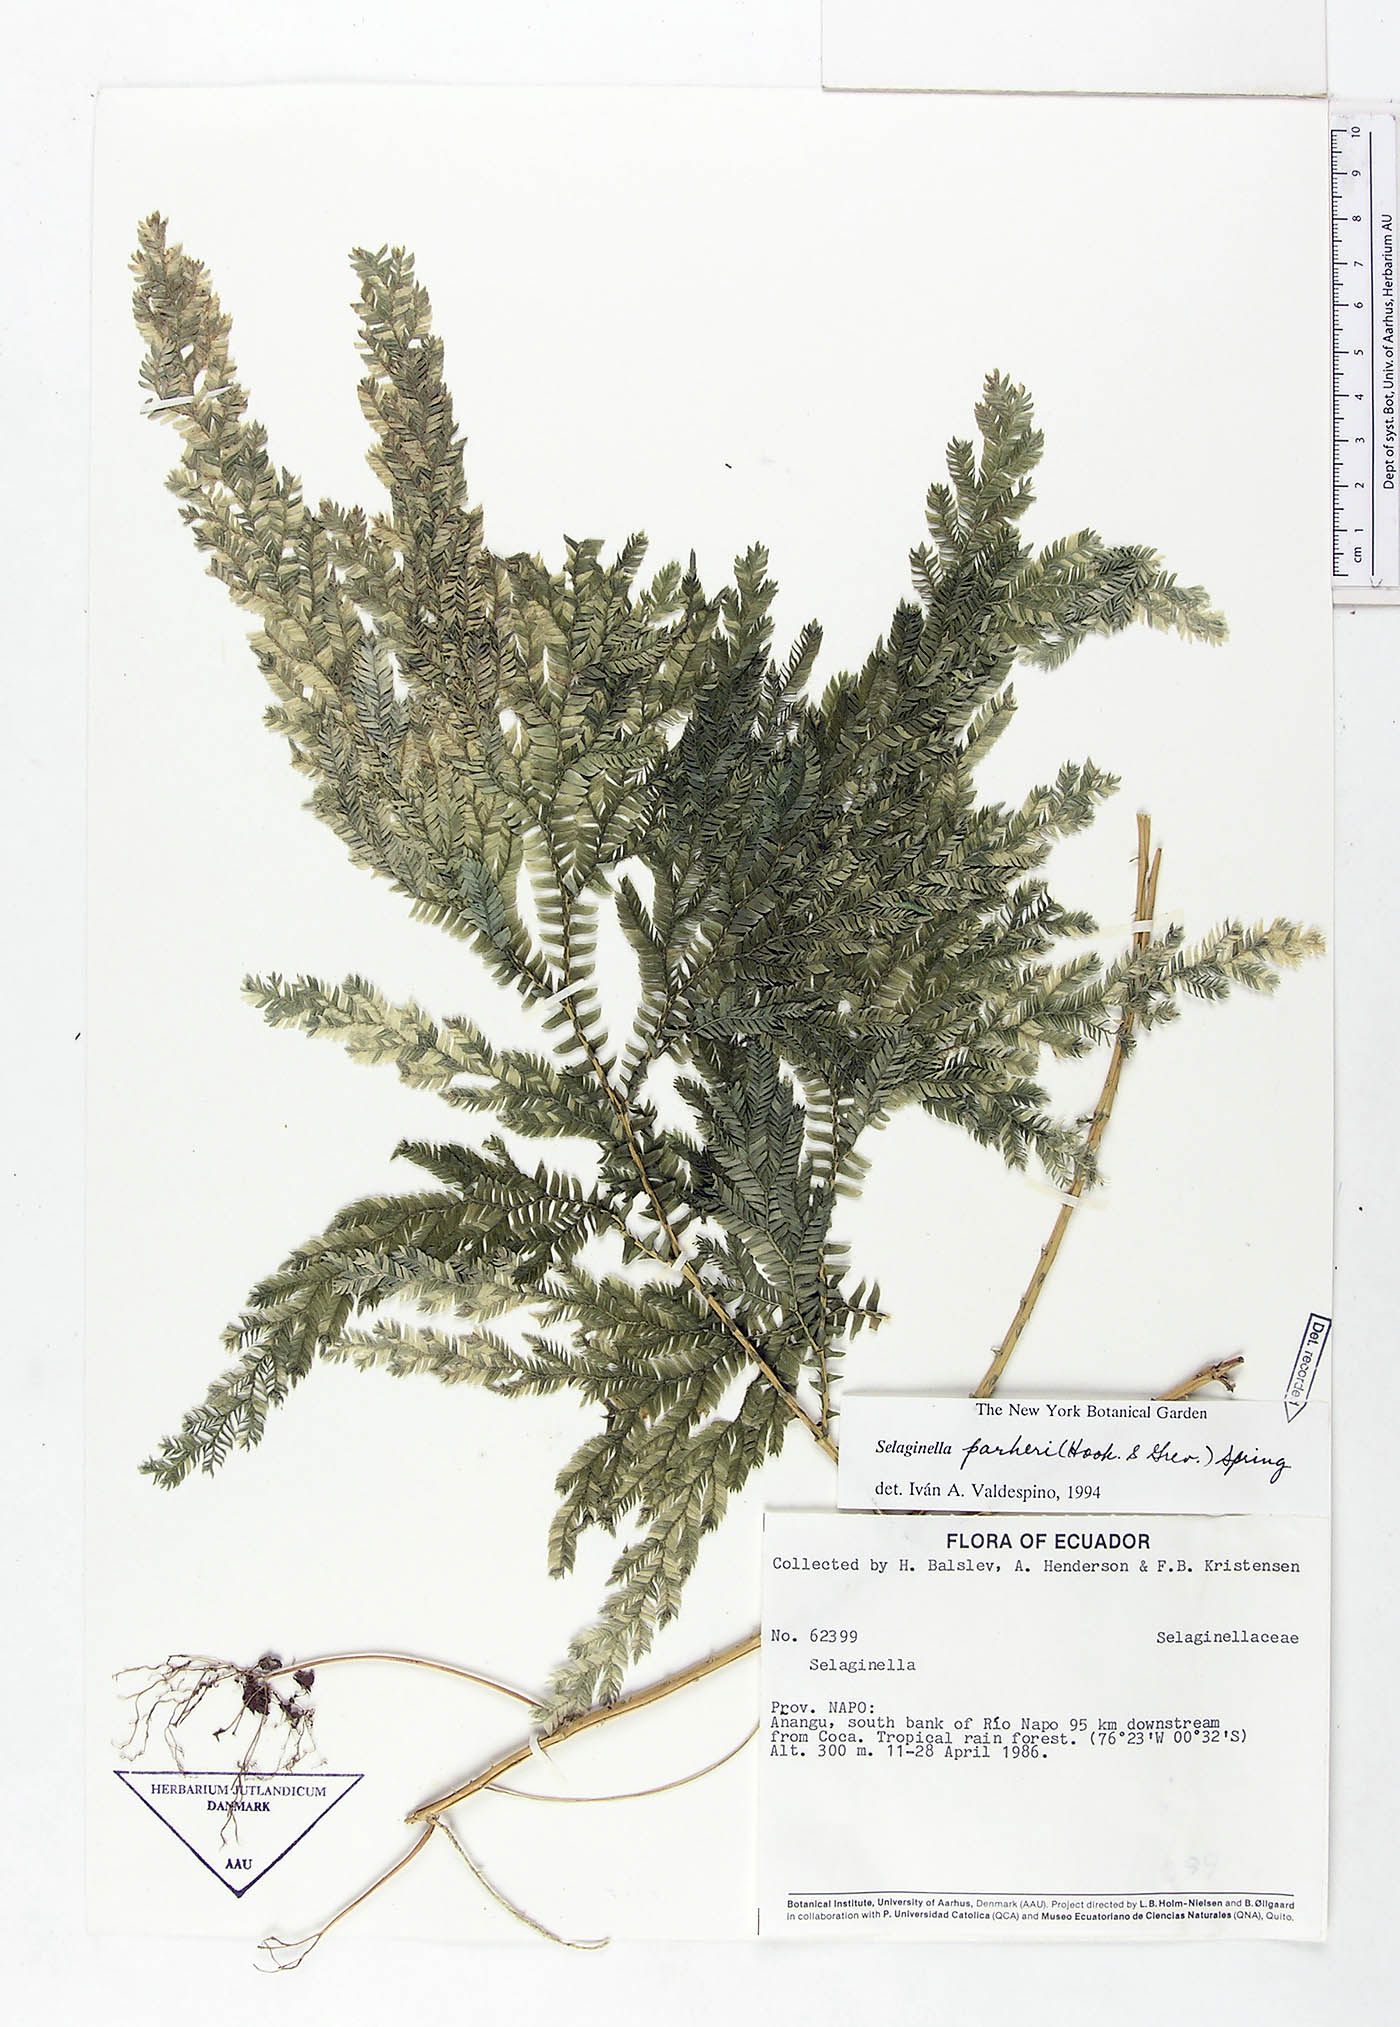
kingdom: Plantae
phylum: Tracheophyta
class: Lycopodiopsida
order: Selaginellales
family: Selaginellaceae
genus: Selaginella
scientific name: Selaginella parkeri
